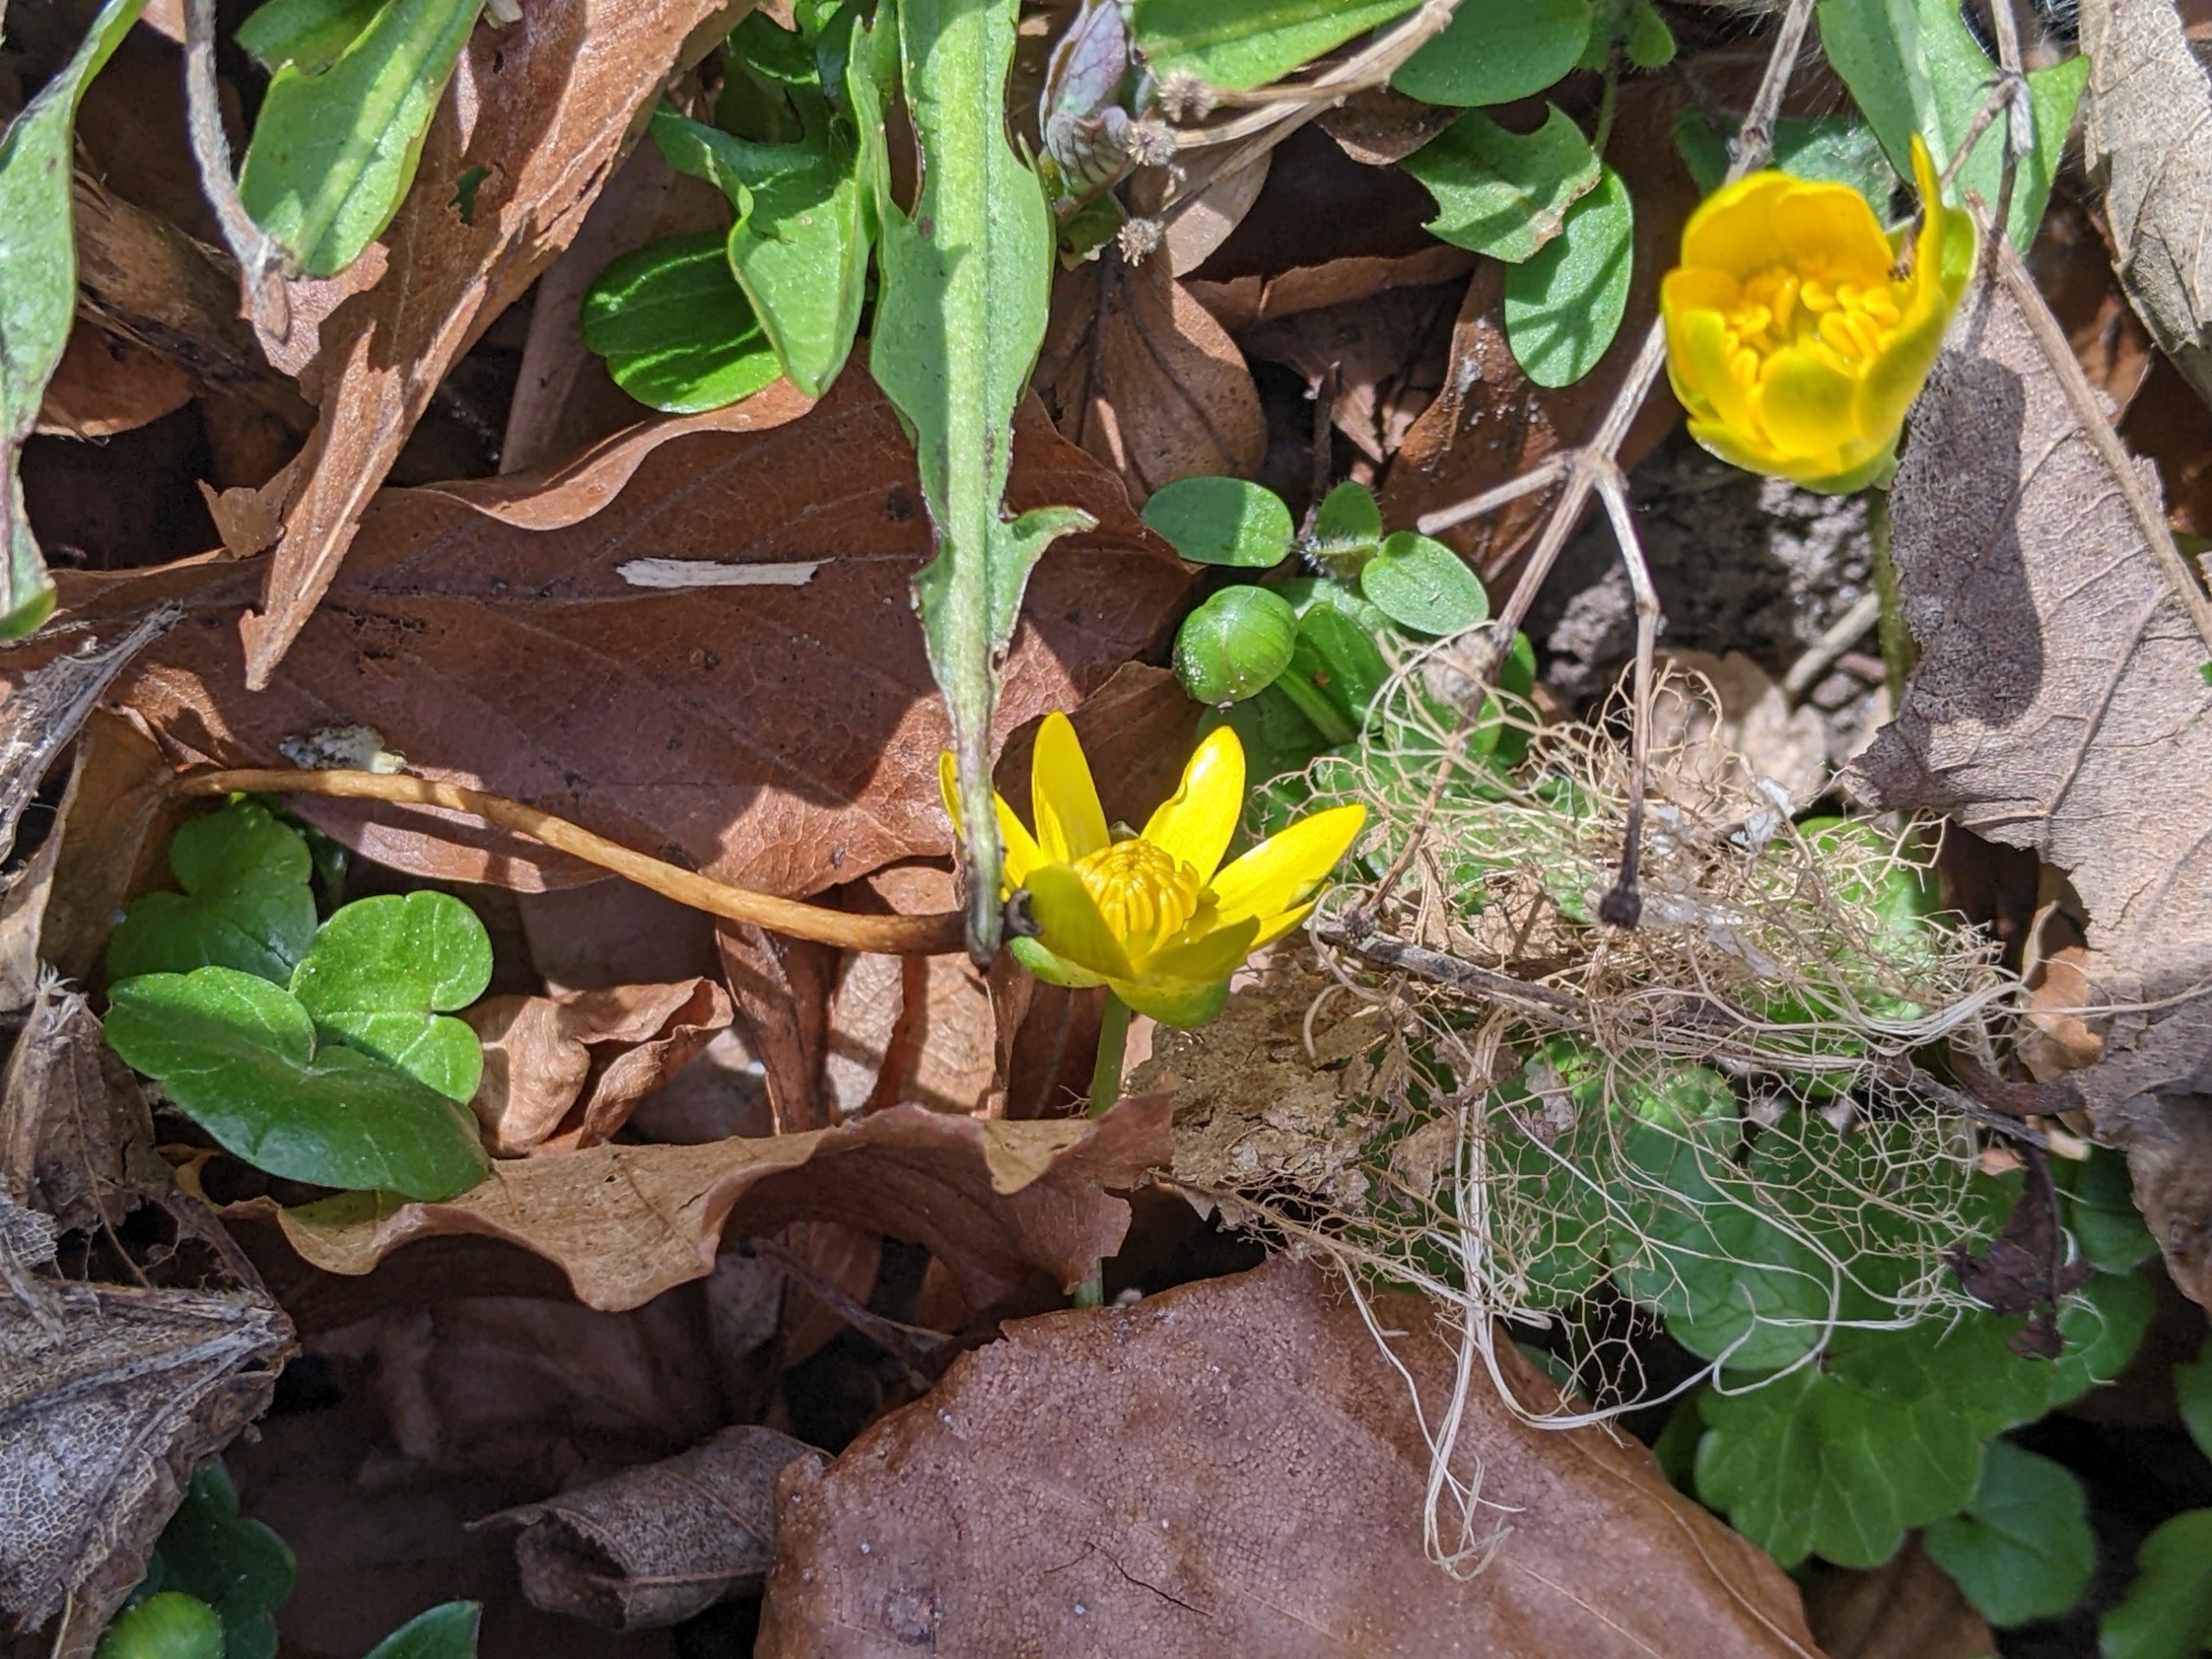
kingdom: Plantae
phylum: Tracheophyta
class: Magnoliopsida
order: Ranunculales
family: Ranunculaceae
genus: Ficaria
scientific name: Ficaria verna
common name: Vorterod
